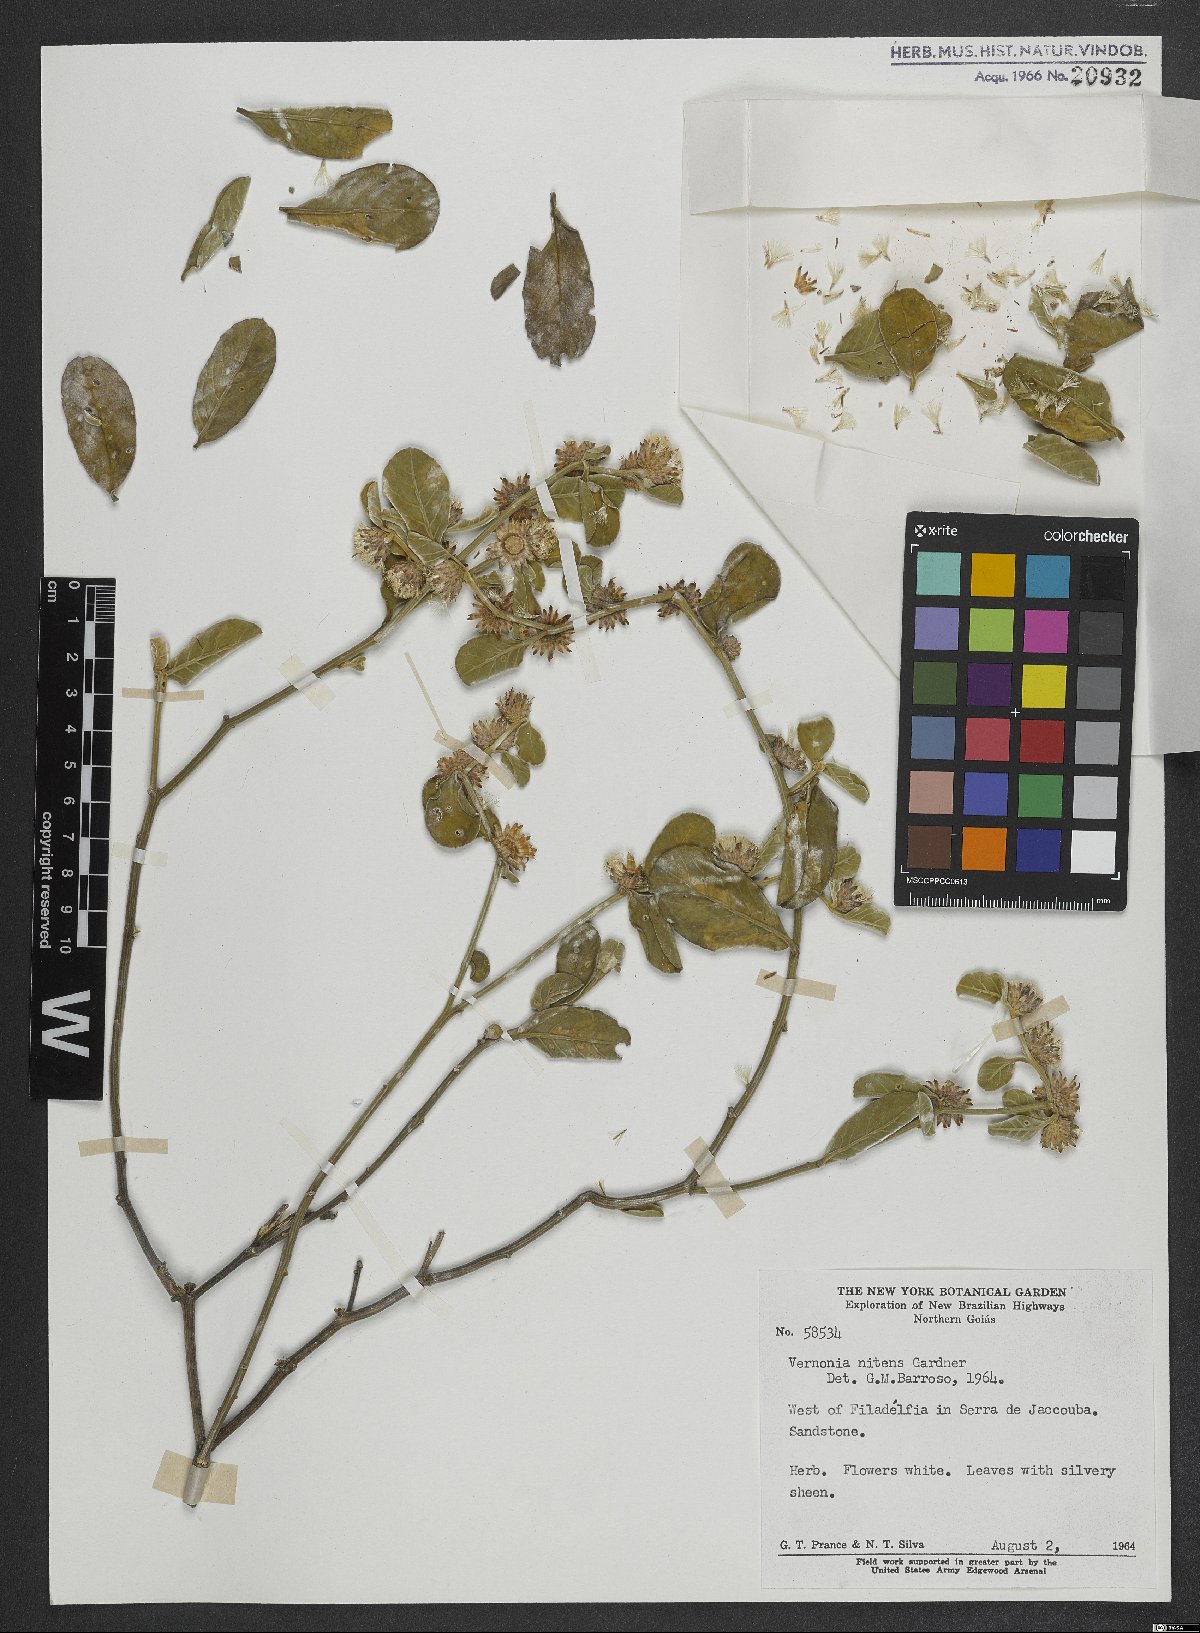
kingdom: Plantae
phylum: Tracheophyta
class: Magnoliopsida
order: Asterales
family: Asteraceae
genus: Lepidaploa
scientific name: Lepidaploa nitens
